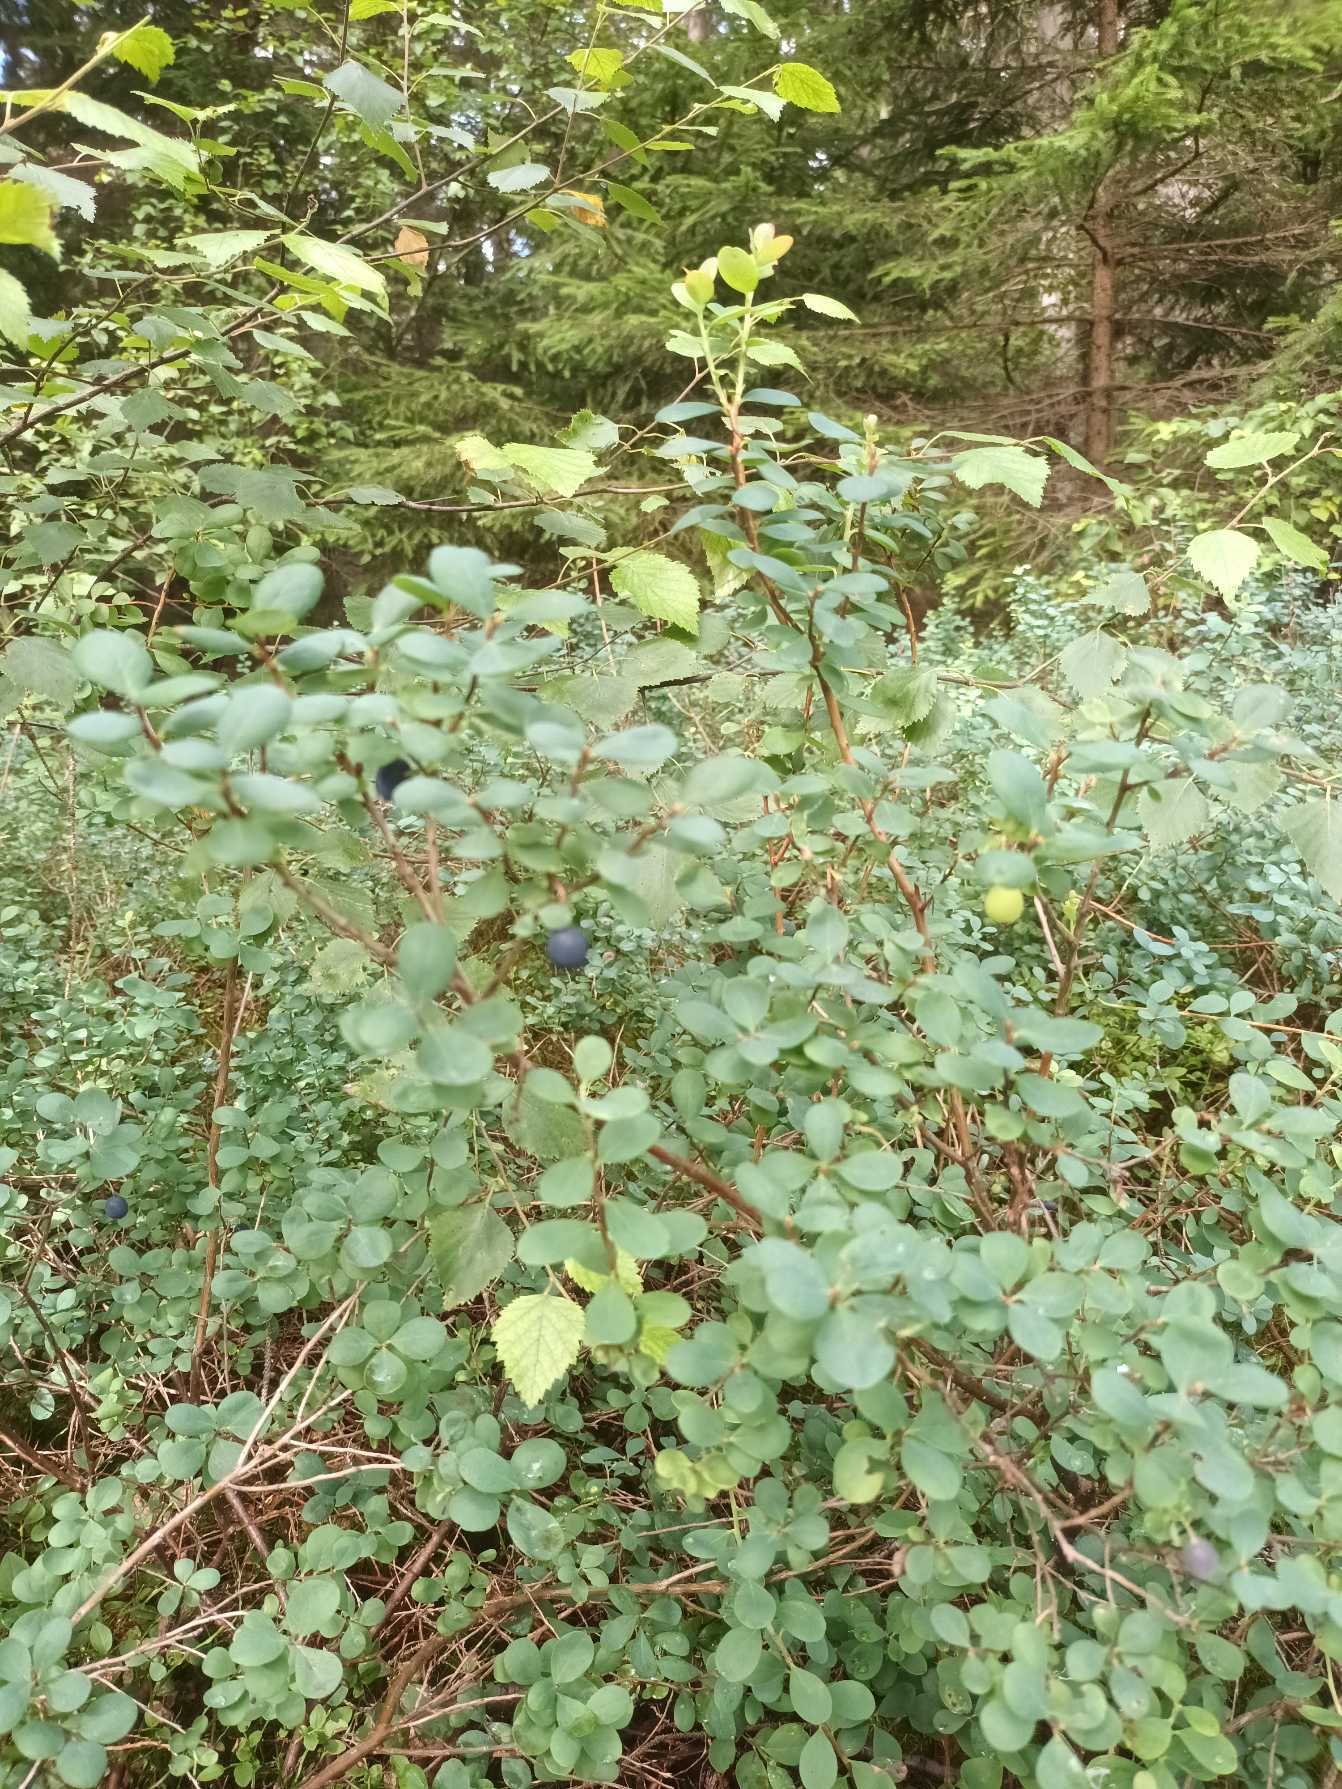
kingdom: Plantae
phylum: Tracheophyta
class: Magnoliopsida
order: Ericales
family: Ericaceae
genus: Vaccinium
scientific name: Vaccinium uliginosum
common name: Mose-bølle
